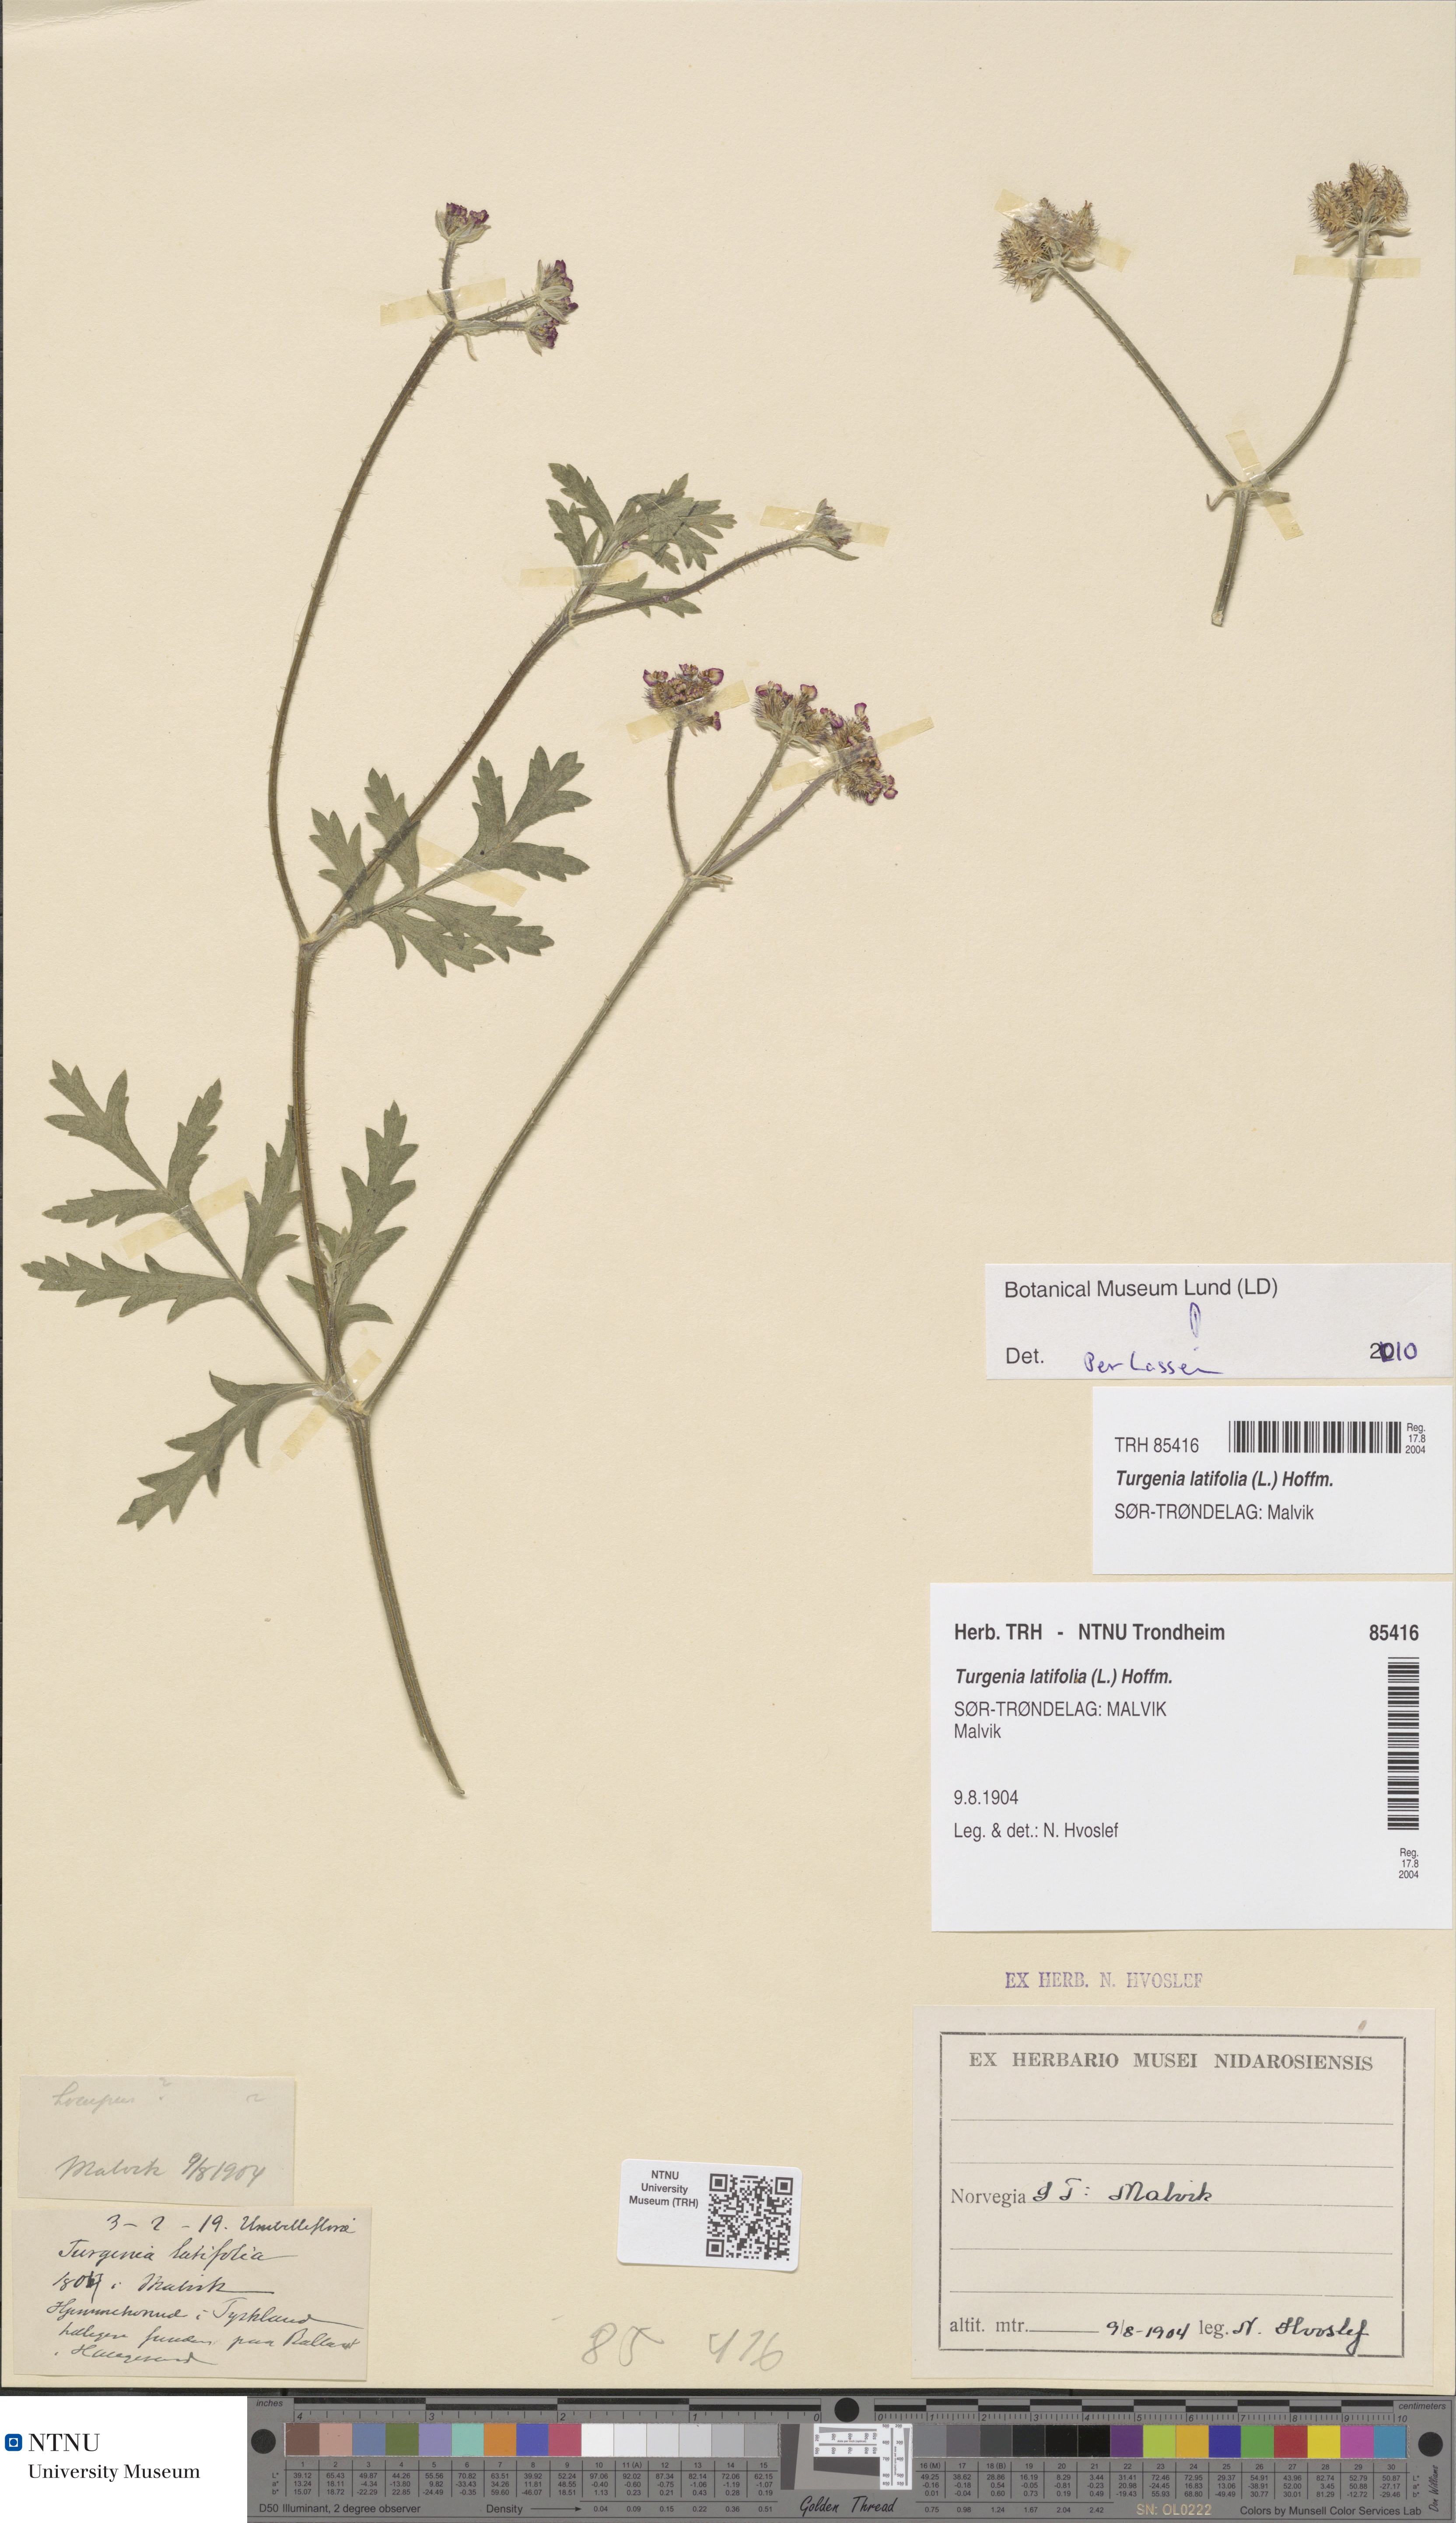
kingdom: Plantae
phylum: Tracheophyta
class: Magnoliopsida
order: Apiales
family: Apiaceae
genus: Turgenia
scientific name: Turgenia latifolia
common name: Greater bur-parsley
